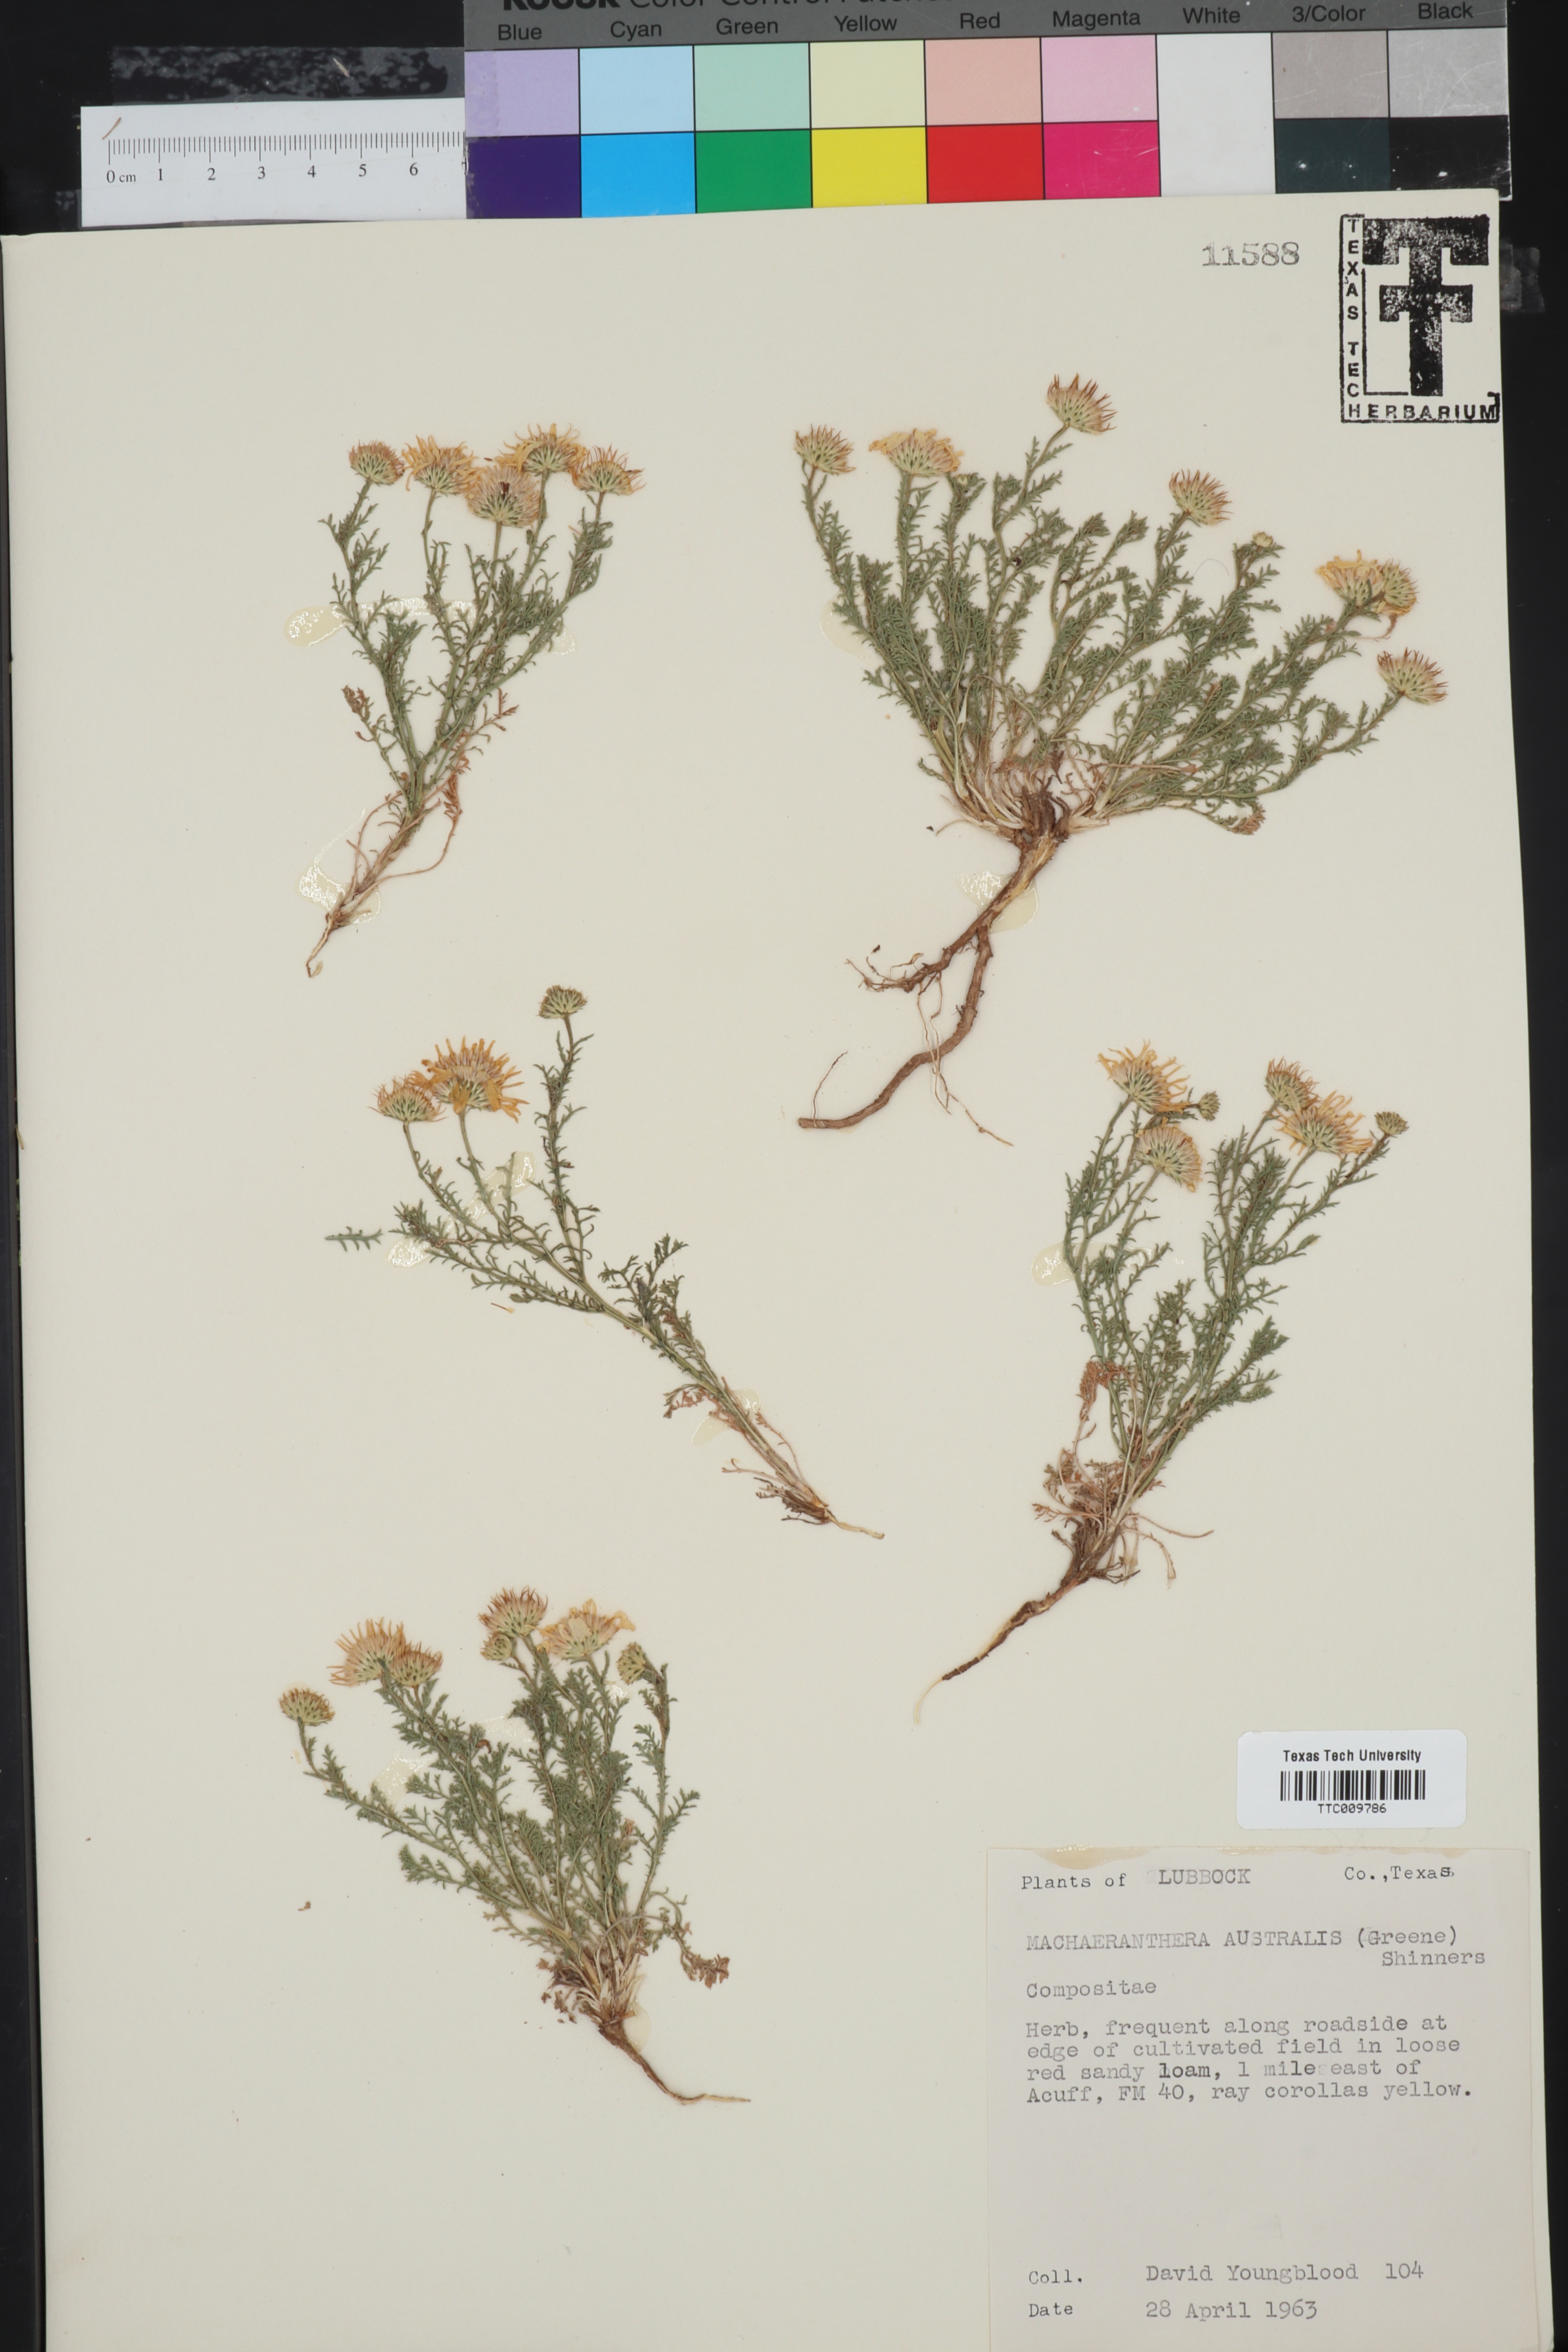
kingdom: Plantae
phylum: Tracheophyta
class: Magnoliopsida
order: Asterales
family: Asteraceae
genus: Xanthisma
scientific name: Xanthisma spinulosum
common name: Spiny goldenweed
